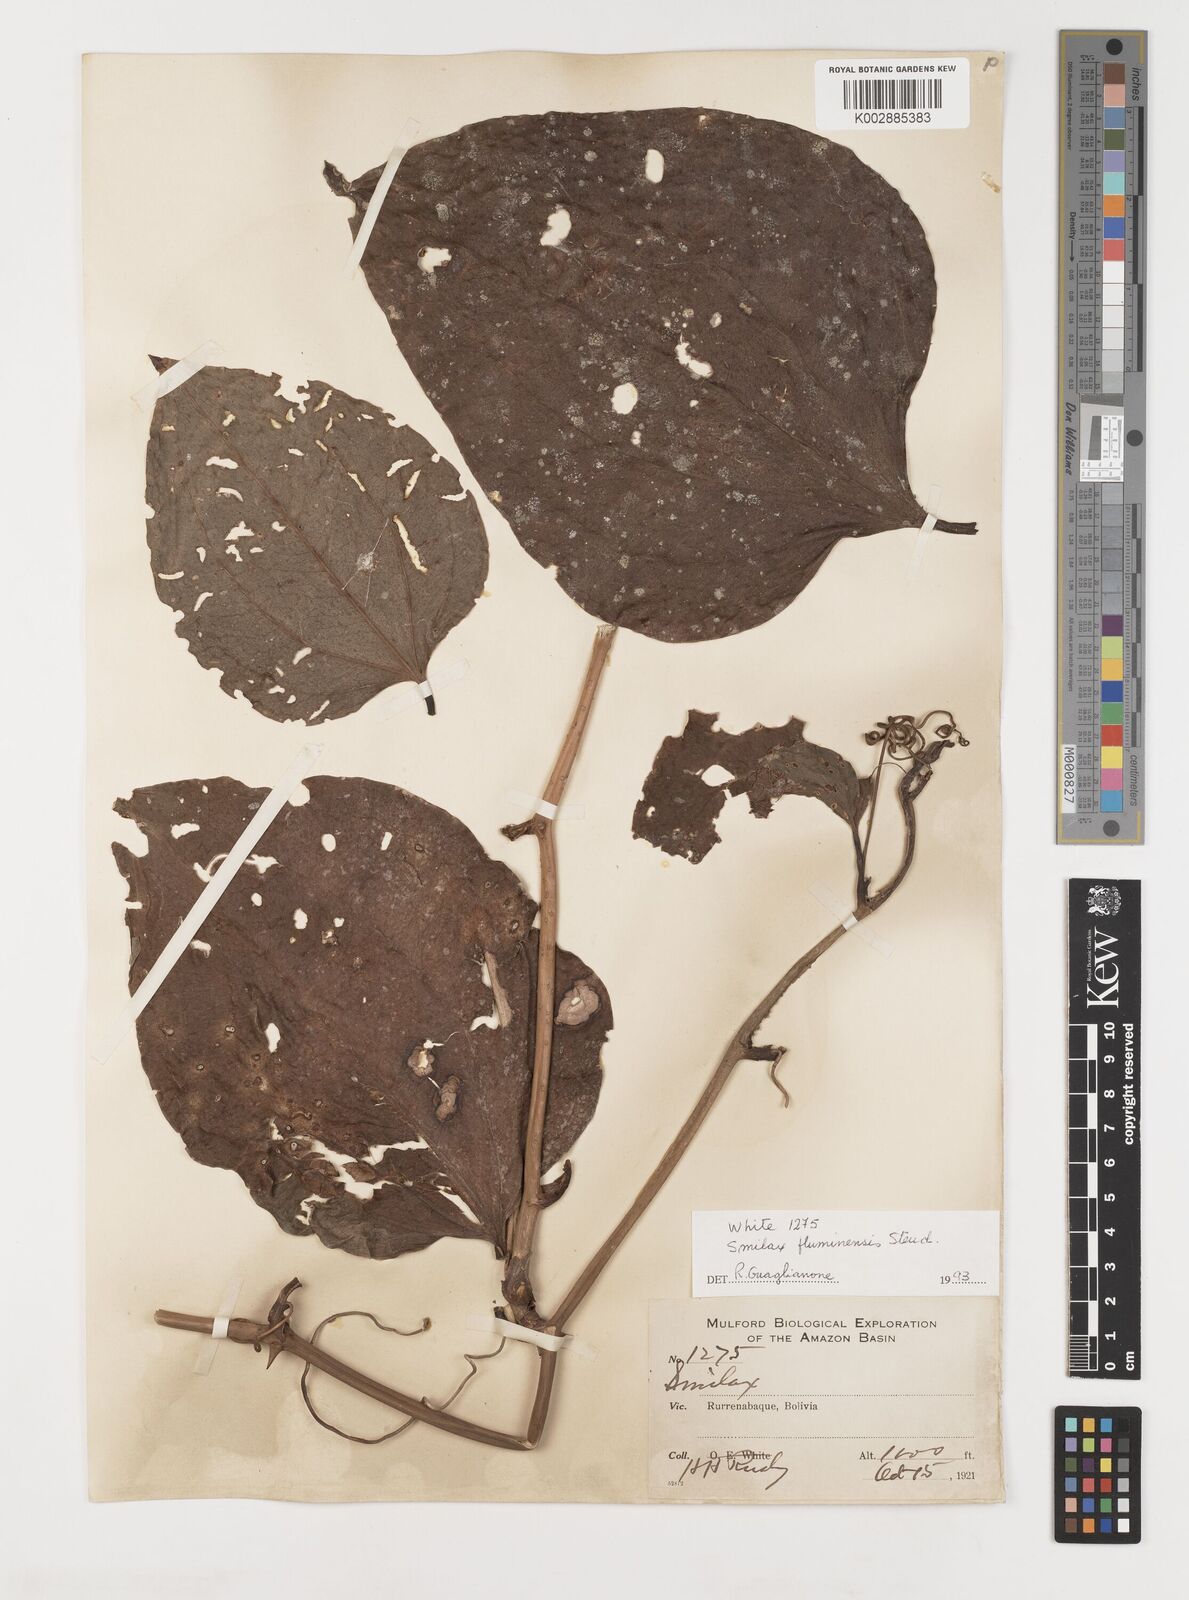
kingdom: Plantae
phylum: Tracheophyta
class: Liliopsida
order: Liliales
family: Smilacaceae
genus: Smilax
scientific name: Smilax
